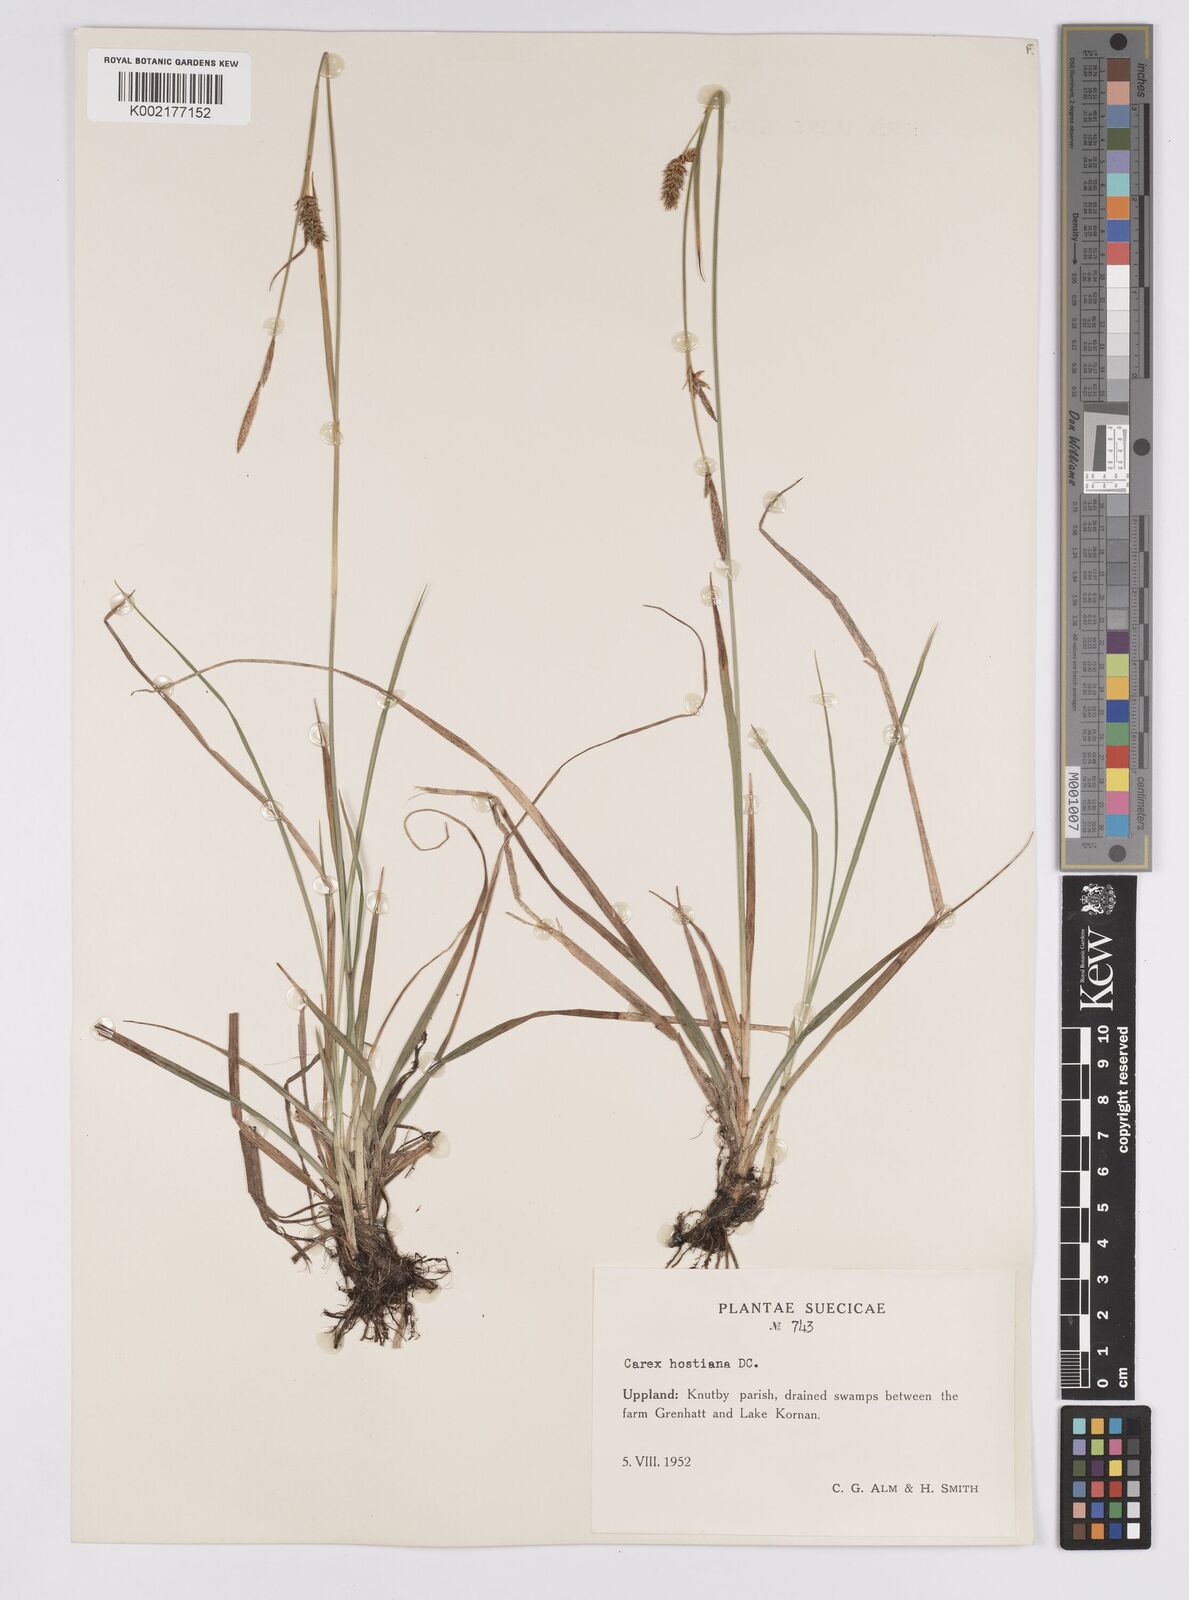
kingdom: Plantae
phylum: Tracheophyta
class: Liliopsida
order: Poales
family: Cyperaceae
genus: Carex
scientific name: Carex hostiana
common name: Tawny sedge
